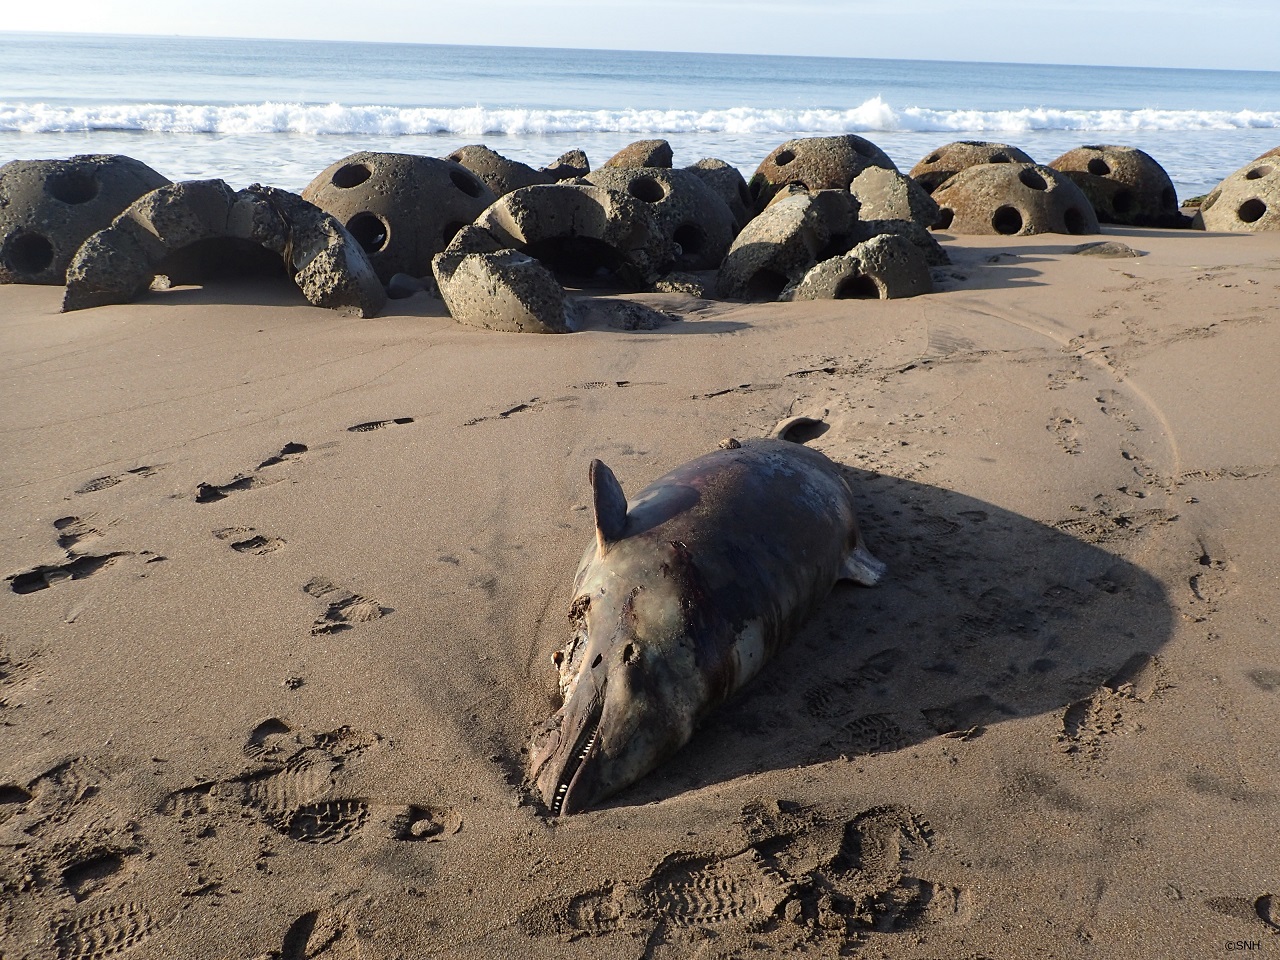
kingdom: Animalia
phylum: Chordata
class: Mammalia
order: Cetacea
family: Delphinidae
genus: Lagenorhynchus
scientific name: Lagenorhynchus obliquidens
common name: Pacific white-sided dolphin
